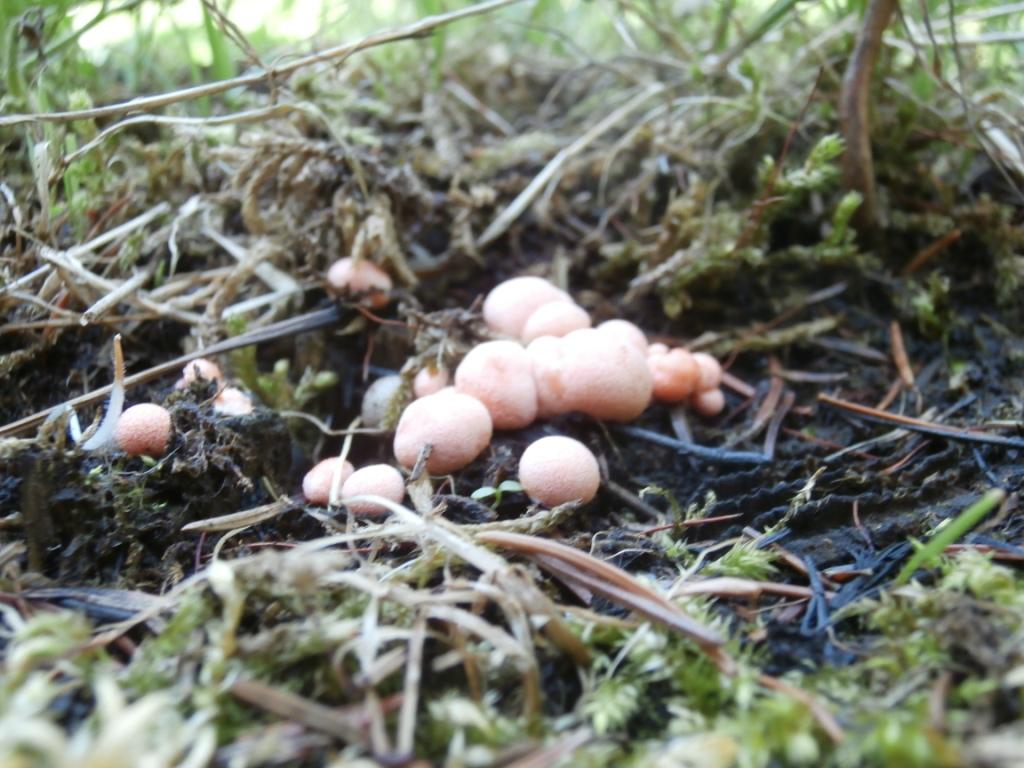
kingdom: Protozoa
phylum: Mycetozoa
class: Myxomycetes
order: Cribrariales
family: Tubiferaceae
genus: Lycogala
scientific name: Lycogala epidendrum
